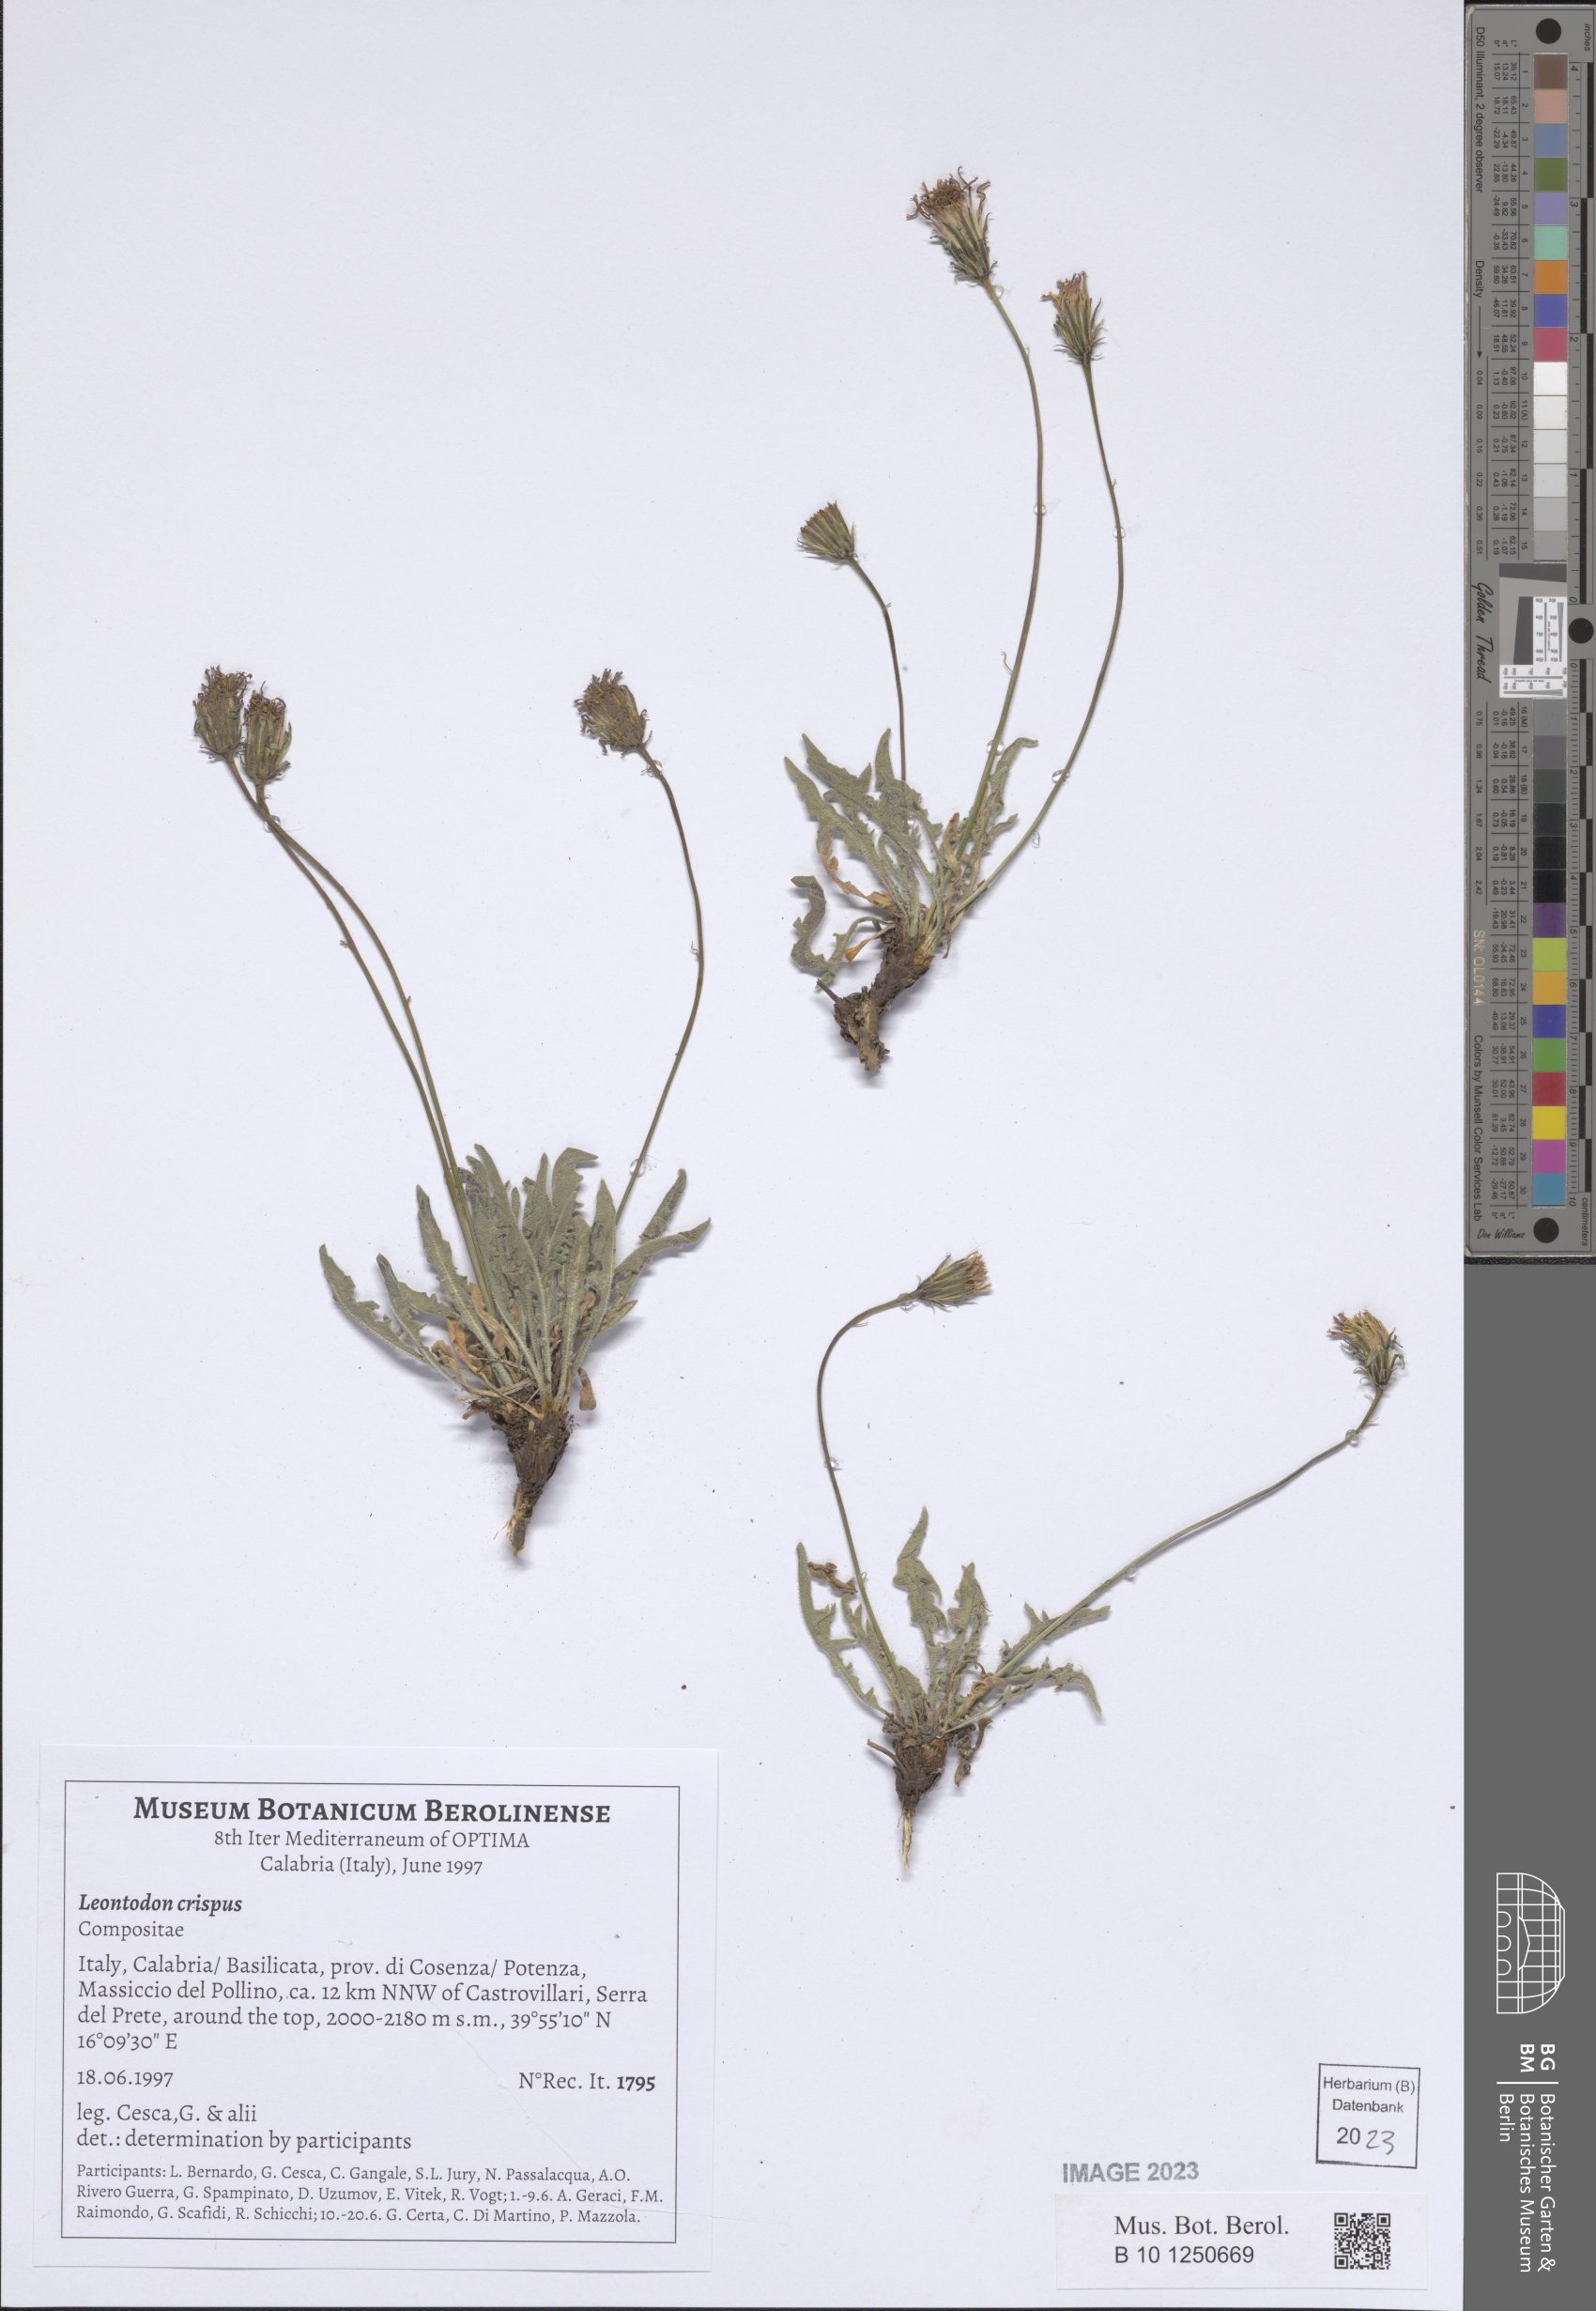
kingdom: Plantae
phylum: Tracheophyta
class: Magnoliopsida
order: Asterales
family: Asteraceae
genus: Leontodon
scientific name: Leontodon crispus
